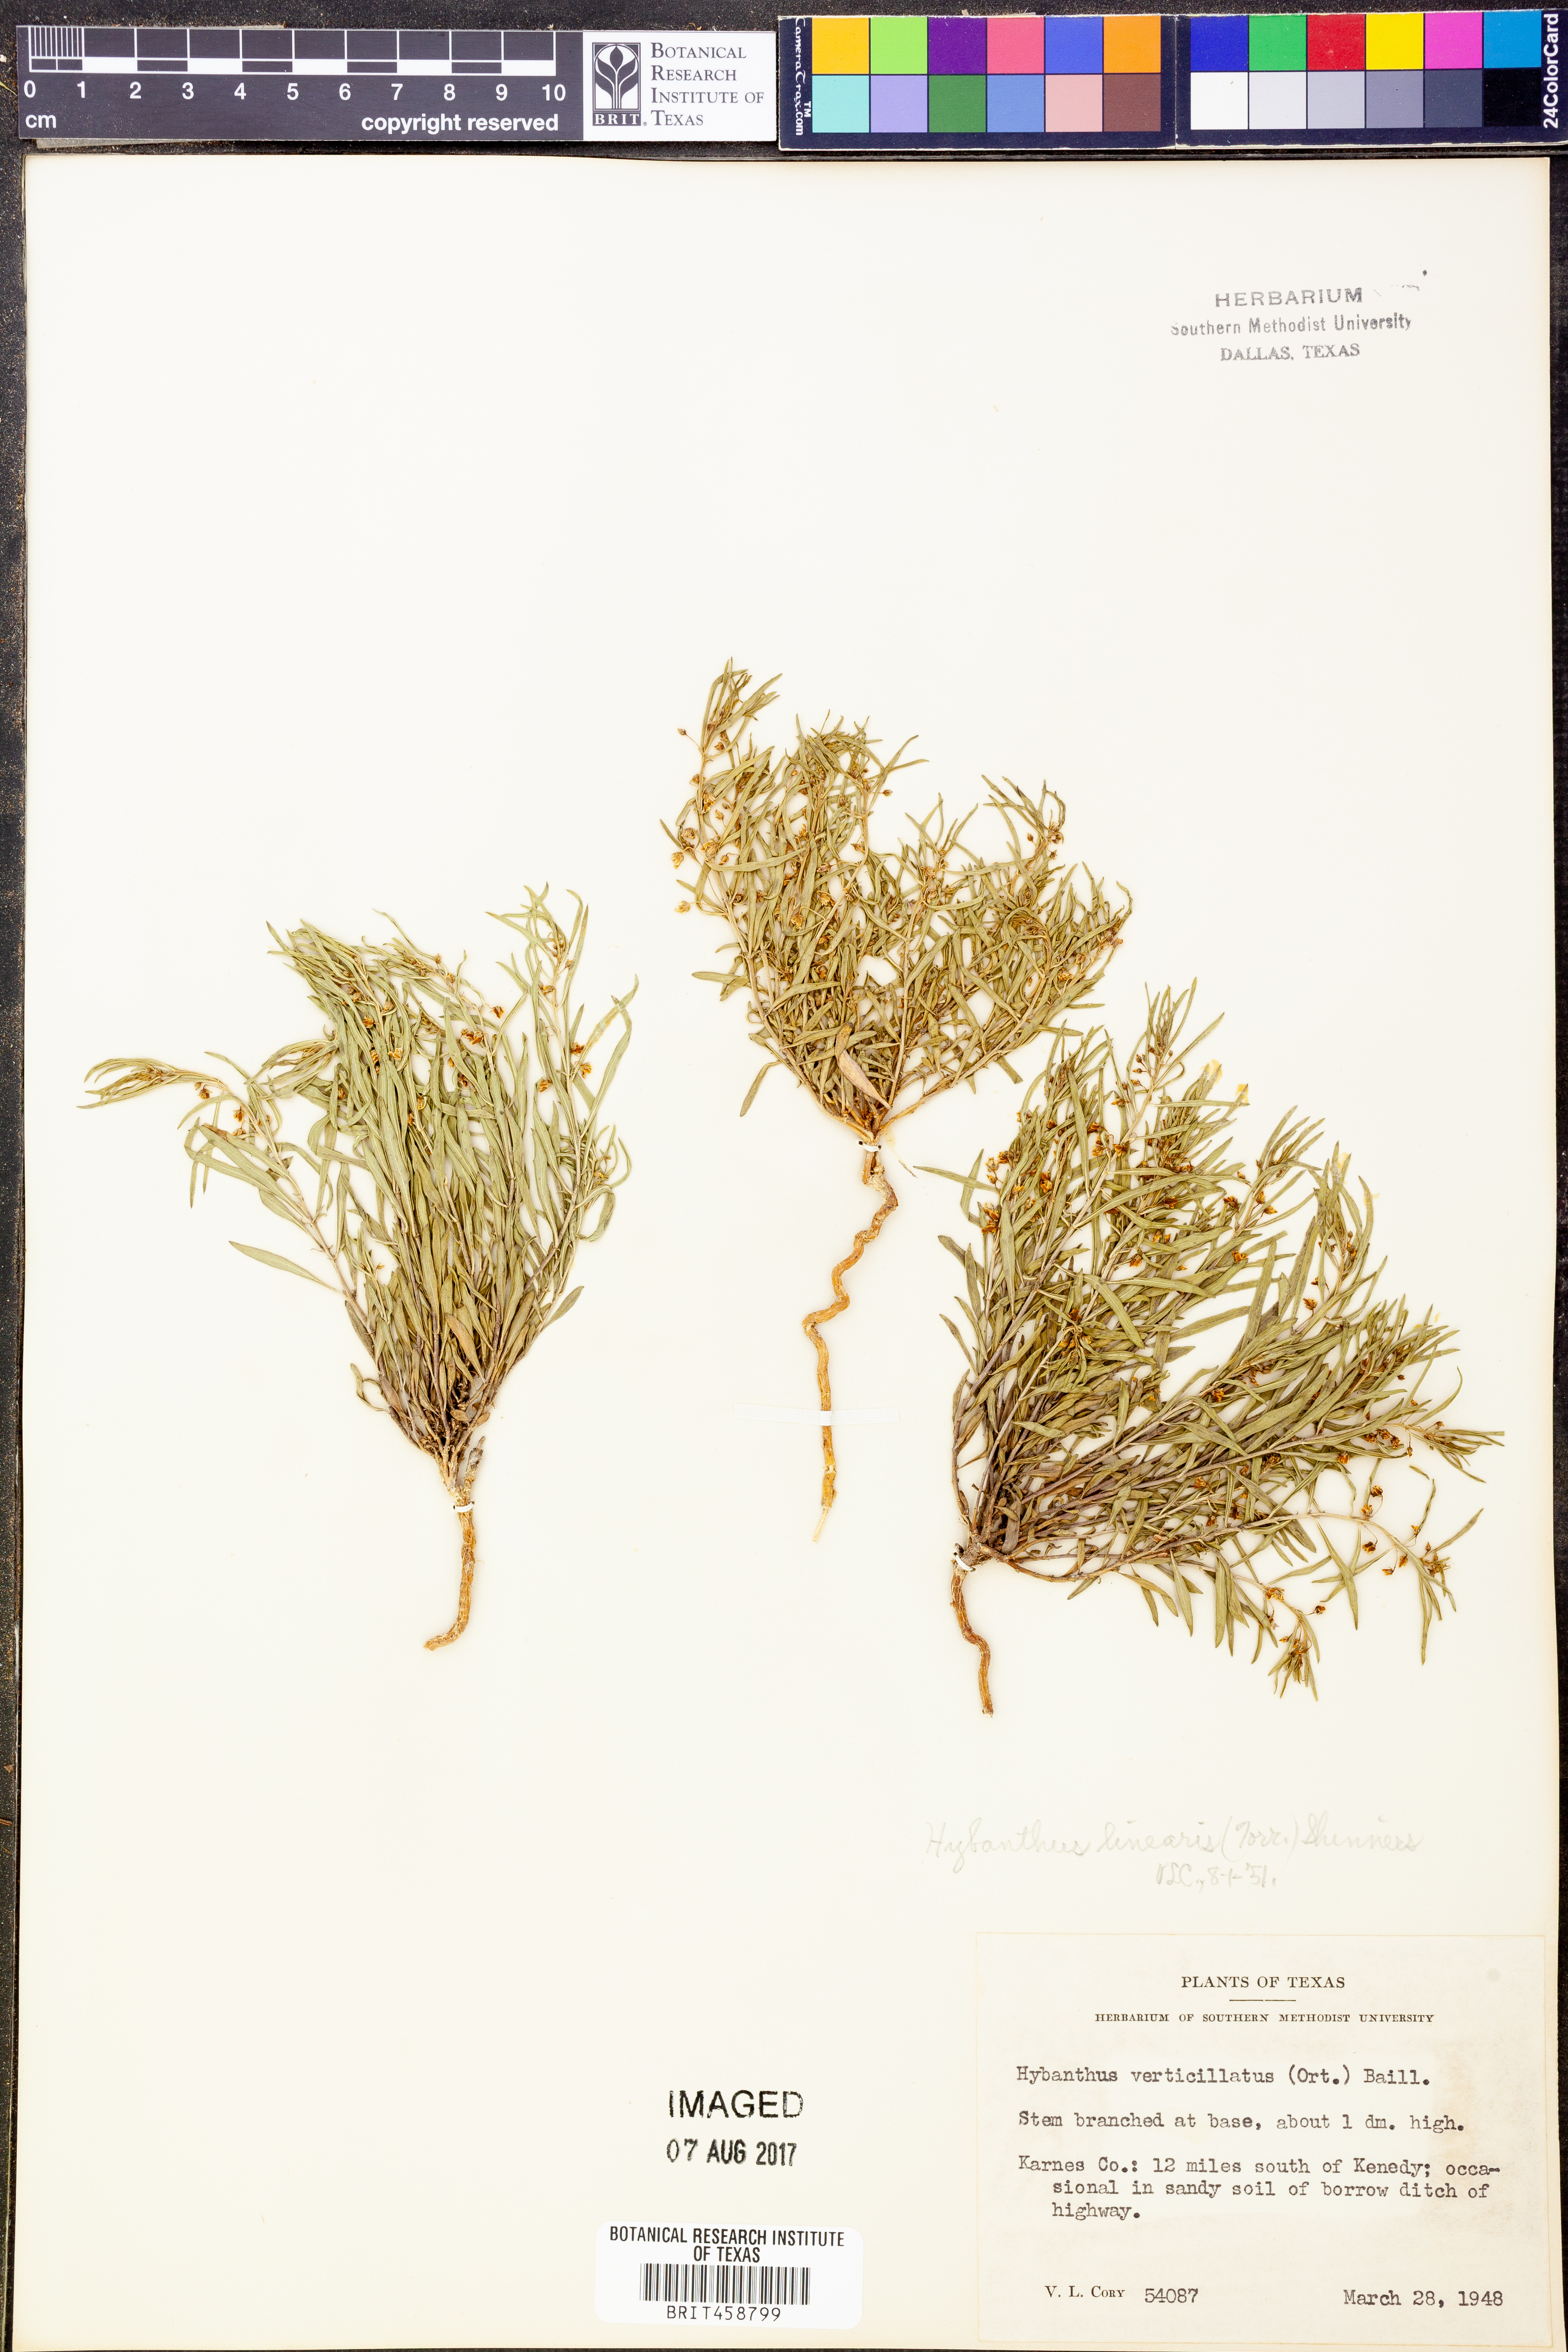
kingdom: Plantae
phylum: Tracheophyta
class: Magnoliopsida
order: Malpighiales
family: Violaceae
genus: Pombalia
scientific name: Pombalia verticillata
